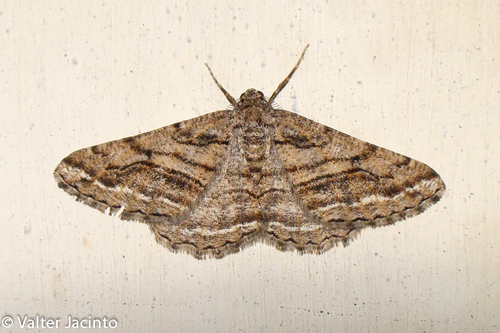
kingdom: Animalia
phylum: Arthropoda
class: Insecta
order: Lepidoptera
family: Geometridae
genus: Calamodes
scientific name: Calamodes occitanaria
